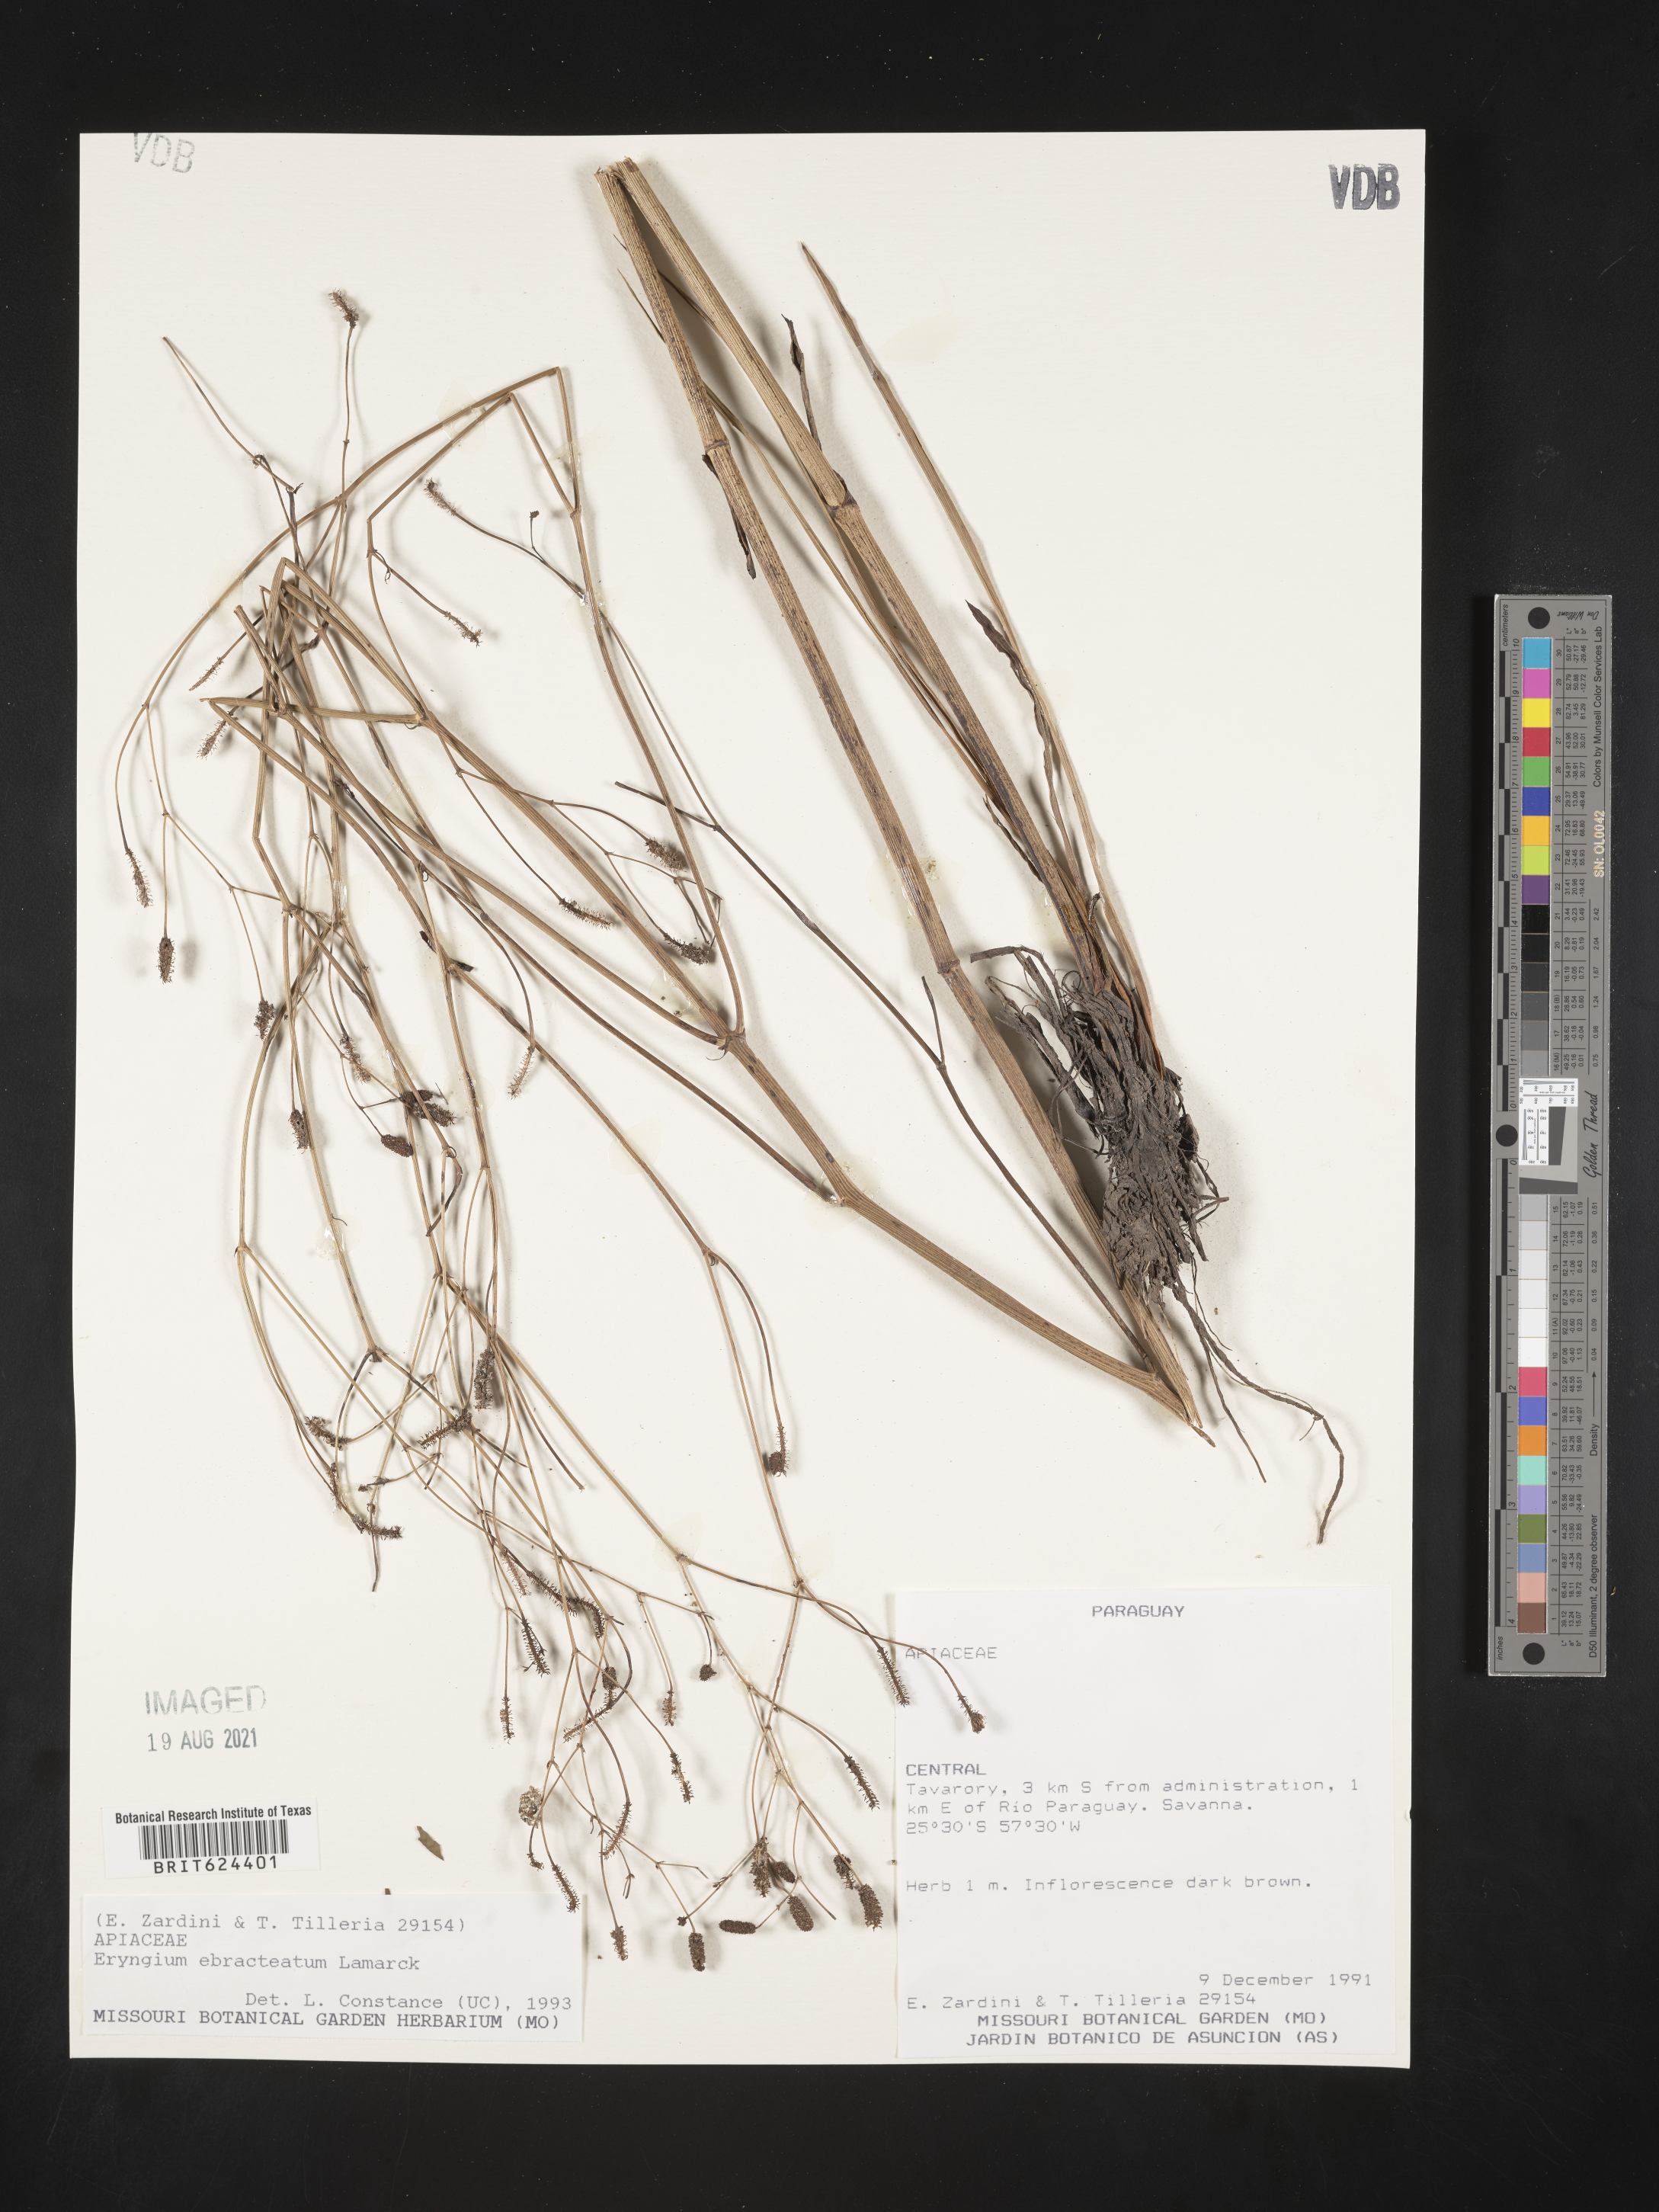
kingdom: Plantae
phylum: Tracheophyta
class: Magnoliopsida
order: Apiales
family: Apiaceae
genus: Eryngium
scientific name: Eryngium ebracteatum
